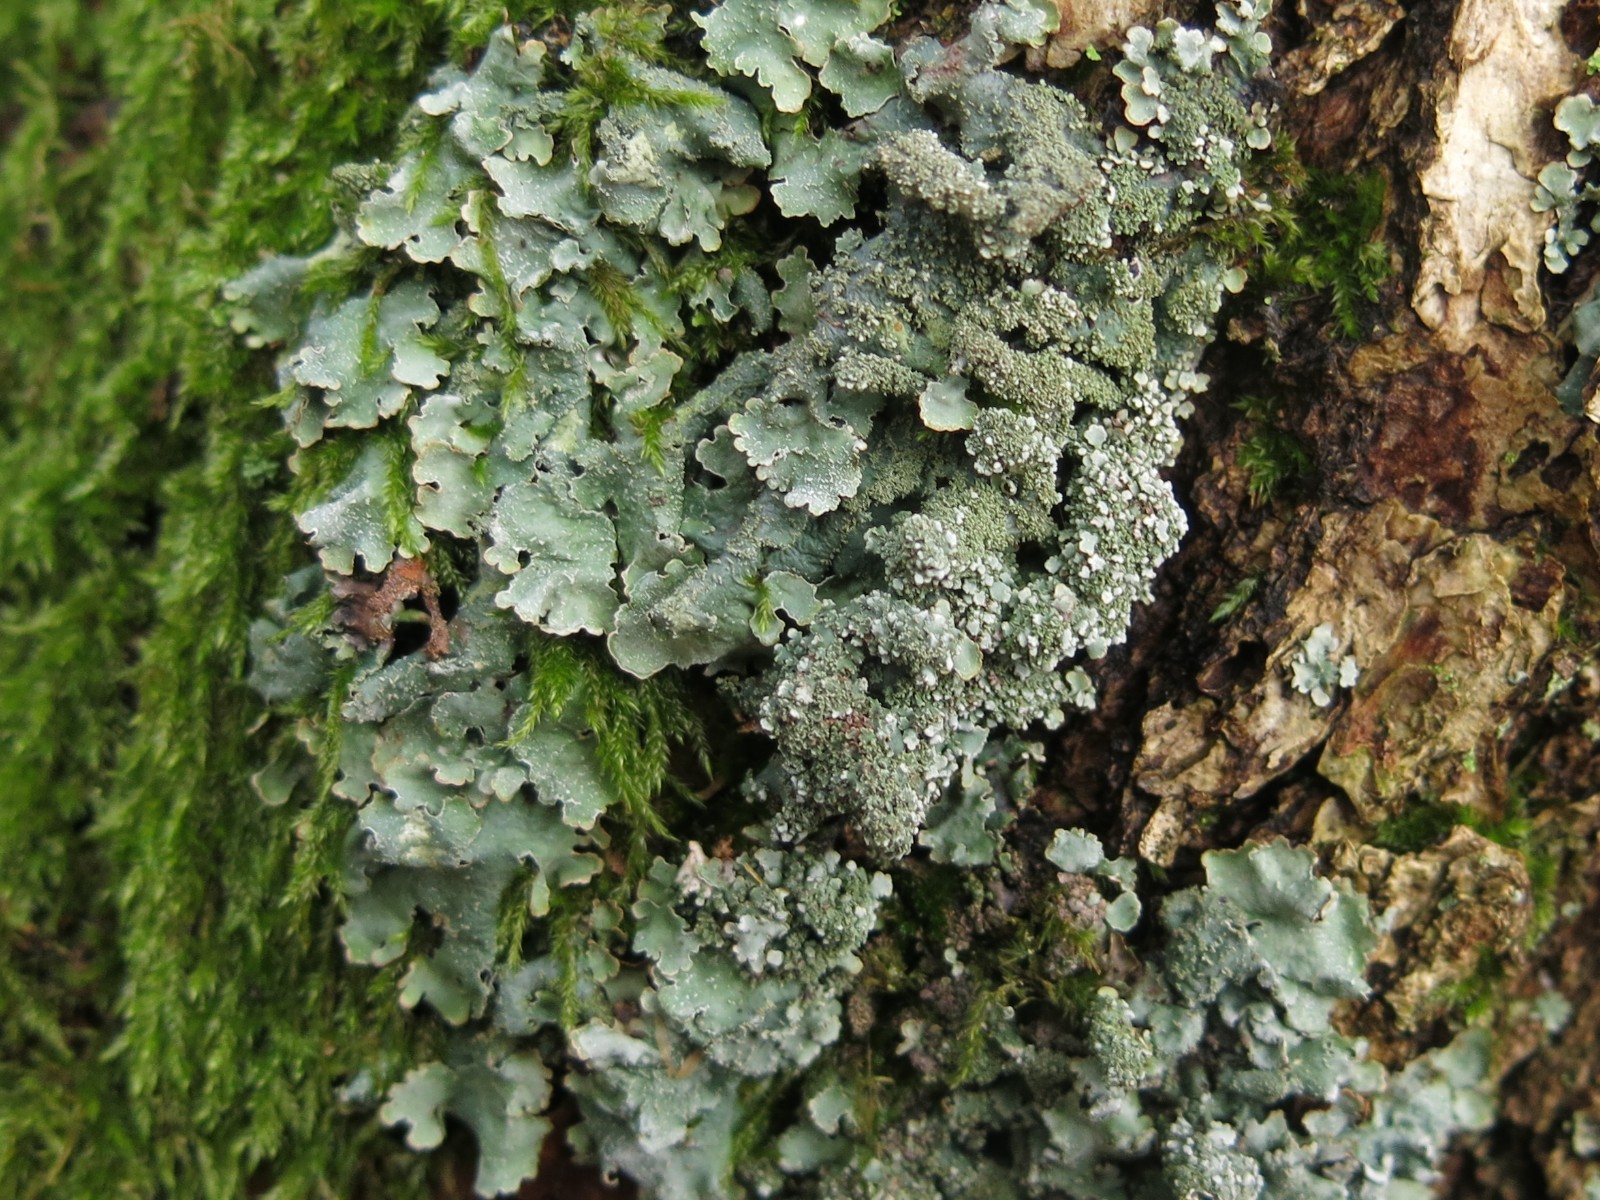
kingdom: Fungi
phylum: Ascomycota
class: Lecanoromycetes
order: Lecanorales
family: Parmeliaceae
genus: Parmelia
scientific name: Parmelia ernstiae
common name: rimstift-skållav
